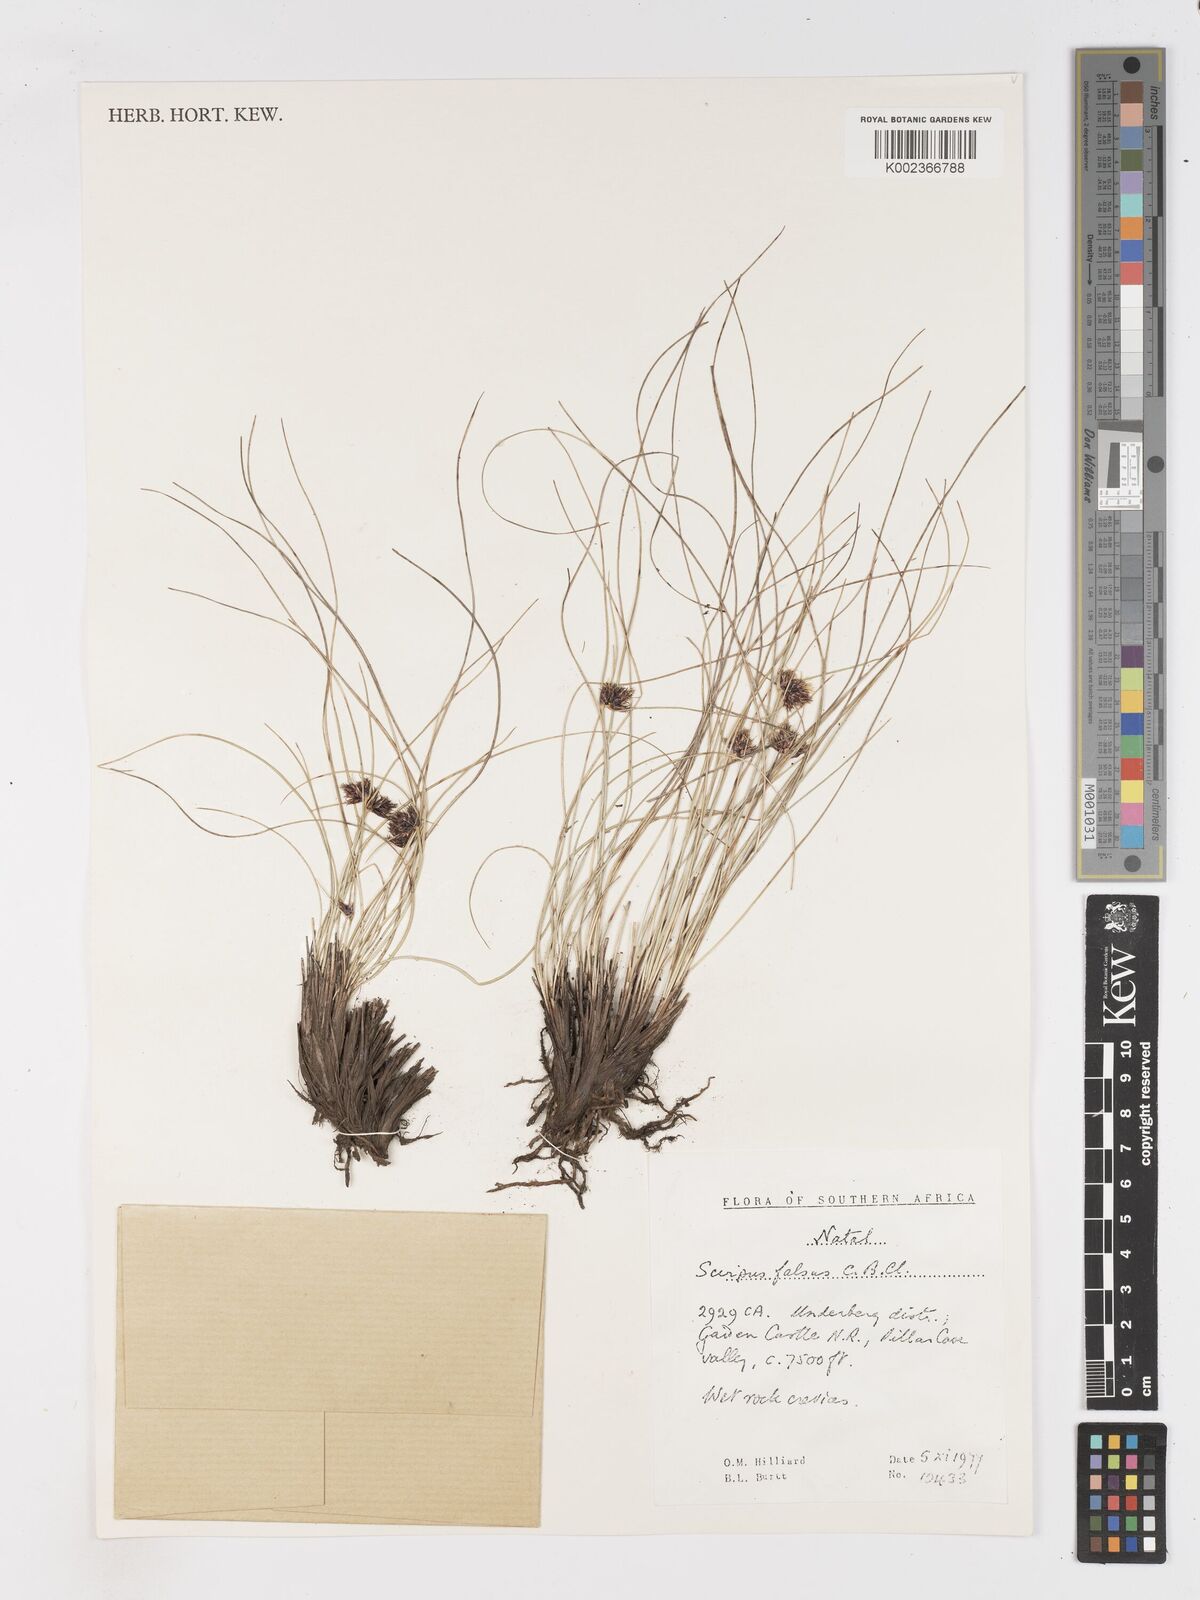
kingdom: Plantae
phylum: Tracheophyta
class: Liliopsida
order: Poales
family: Cyperaceae
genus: Dracoscirpoides
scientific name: Dracoscirpoides falsa
